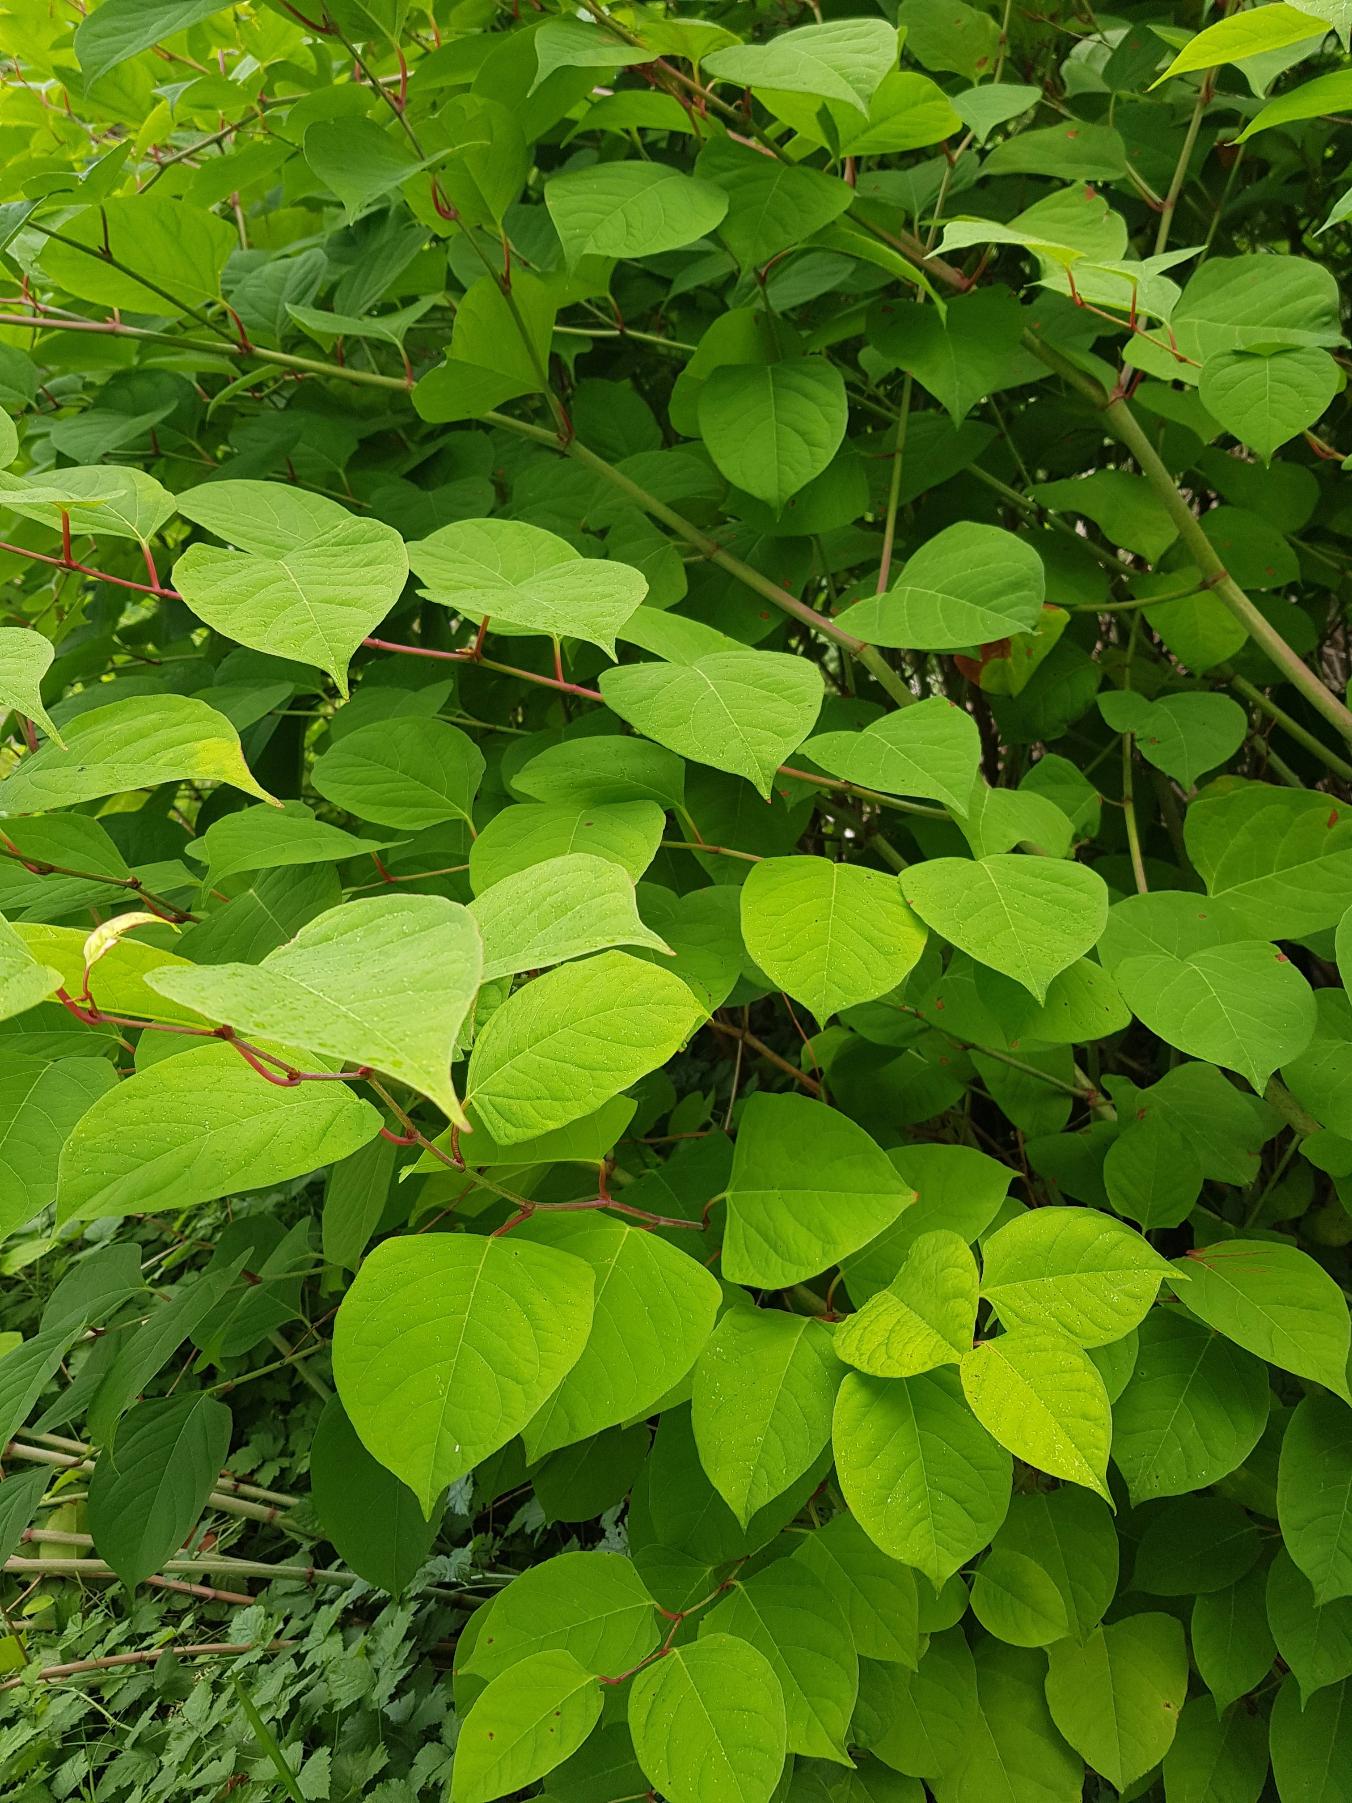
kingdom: Plantae
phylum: Tracheophyta
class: Magnoliopsida
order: Caryophyllales
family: Polygonaceae
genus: Reynoutria
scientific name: Reynoutria japonica
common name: Japan-pileurt
